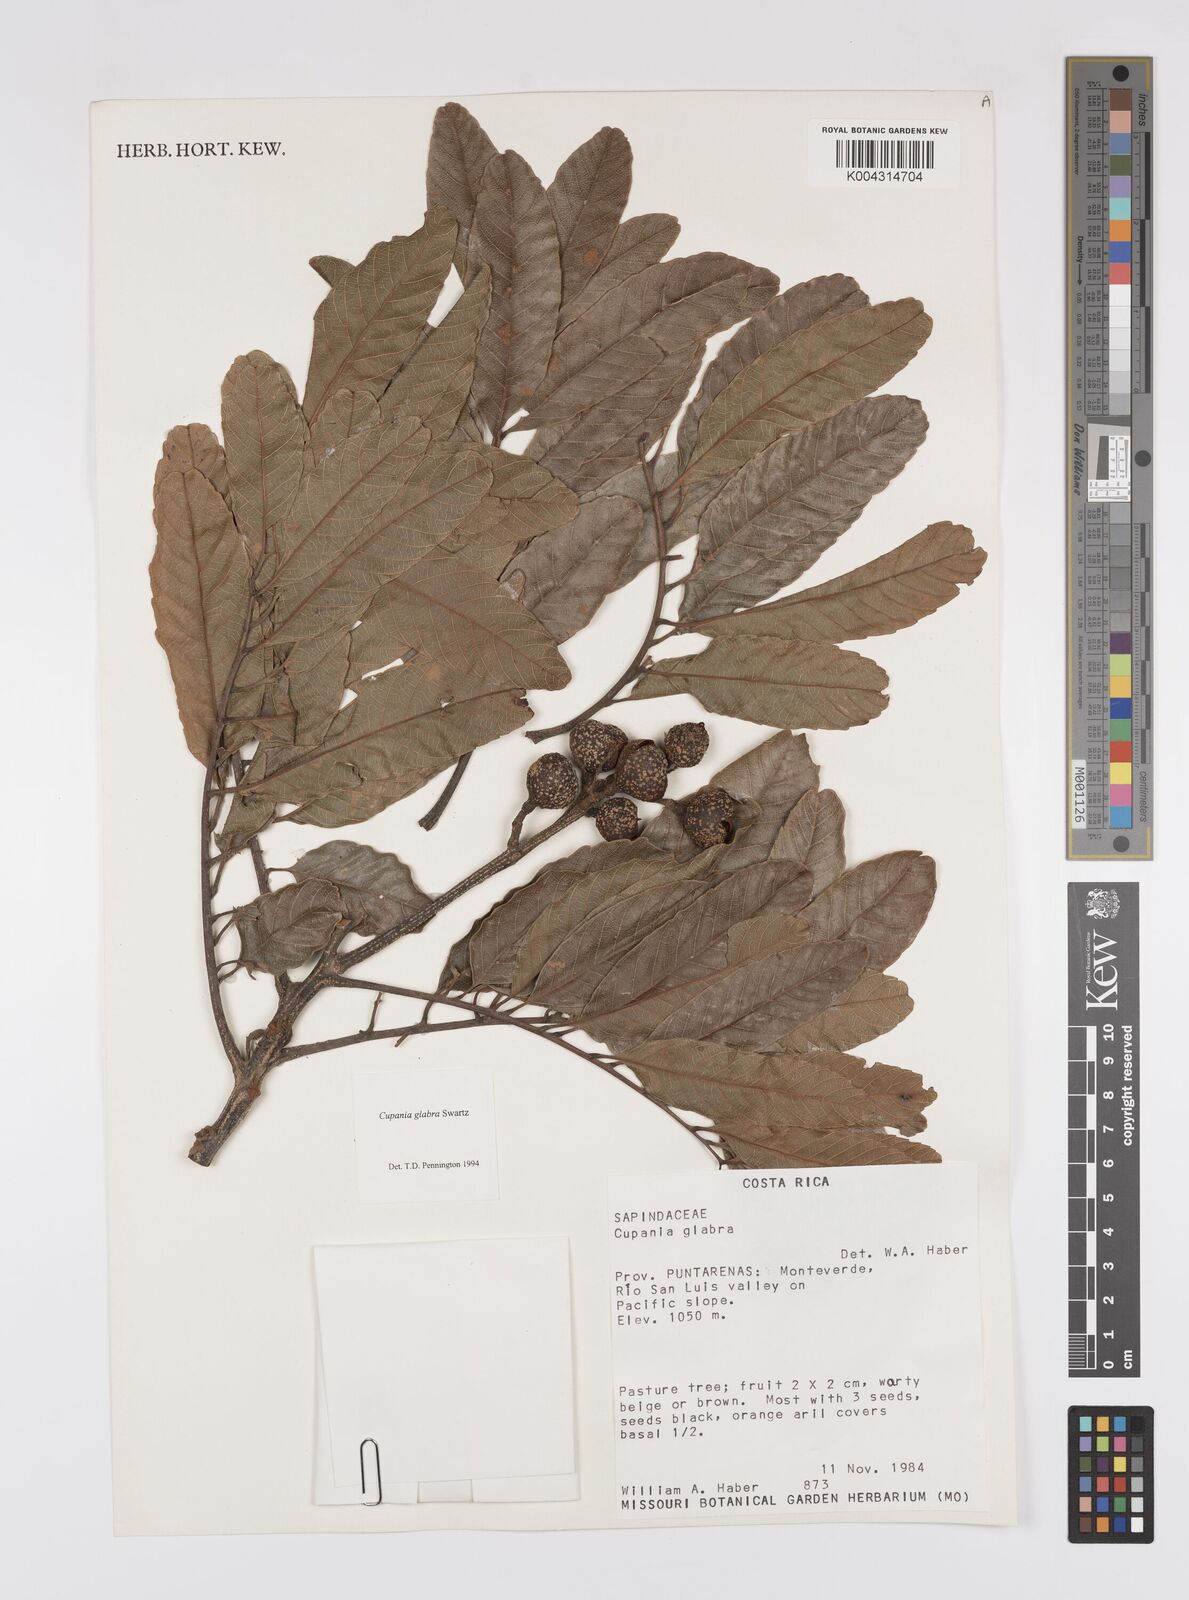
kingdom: Plantae
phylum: Tracheophyta
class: Magnoliopsida
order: Sapindales
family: Sapindaceae
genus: Cupania
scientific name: Cupania
